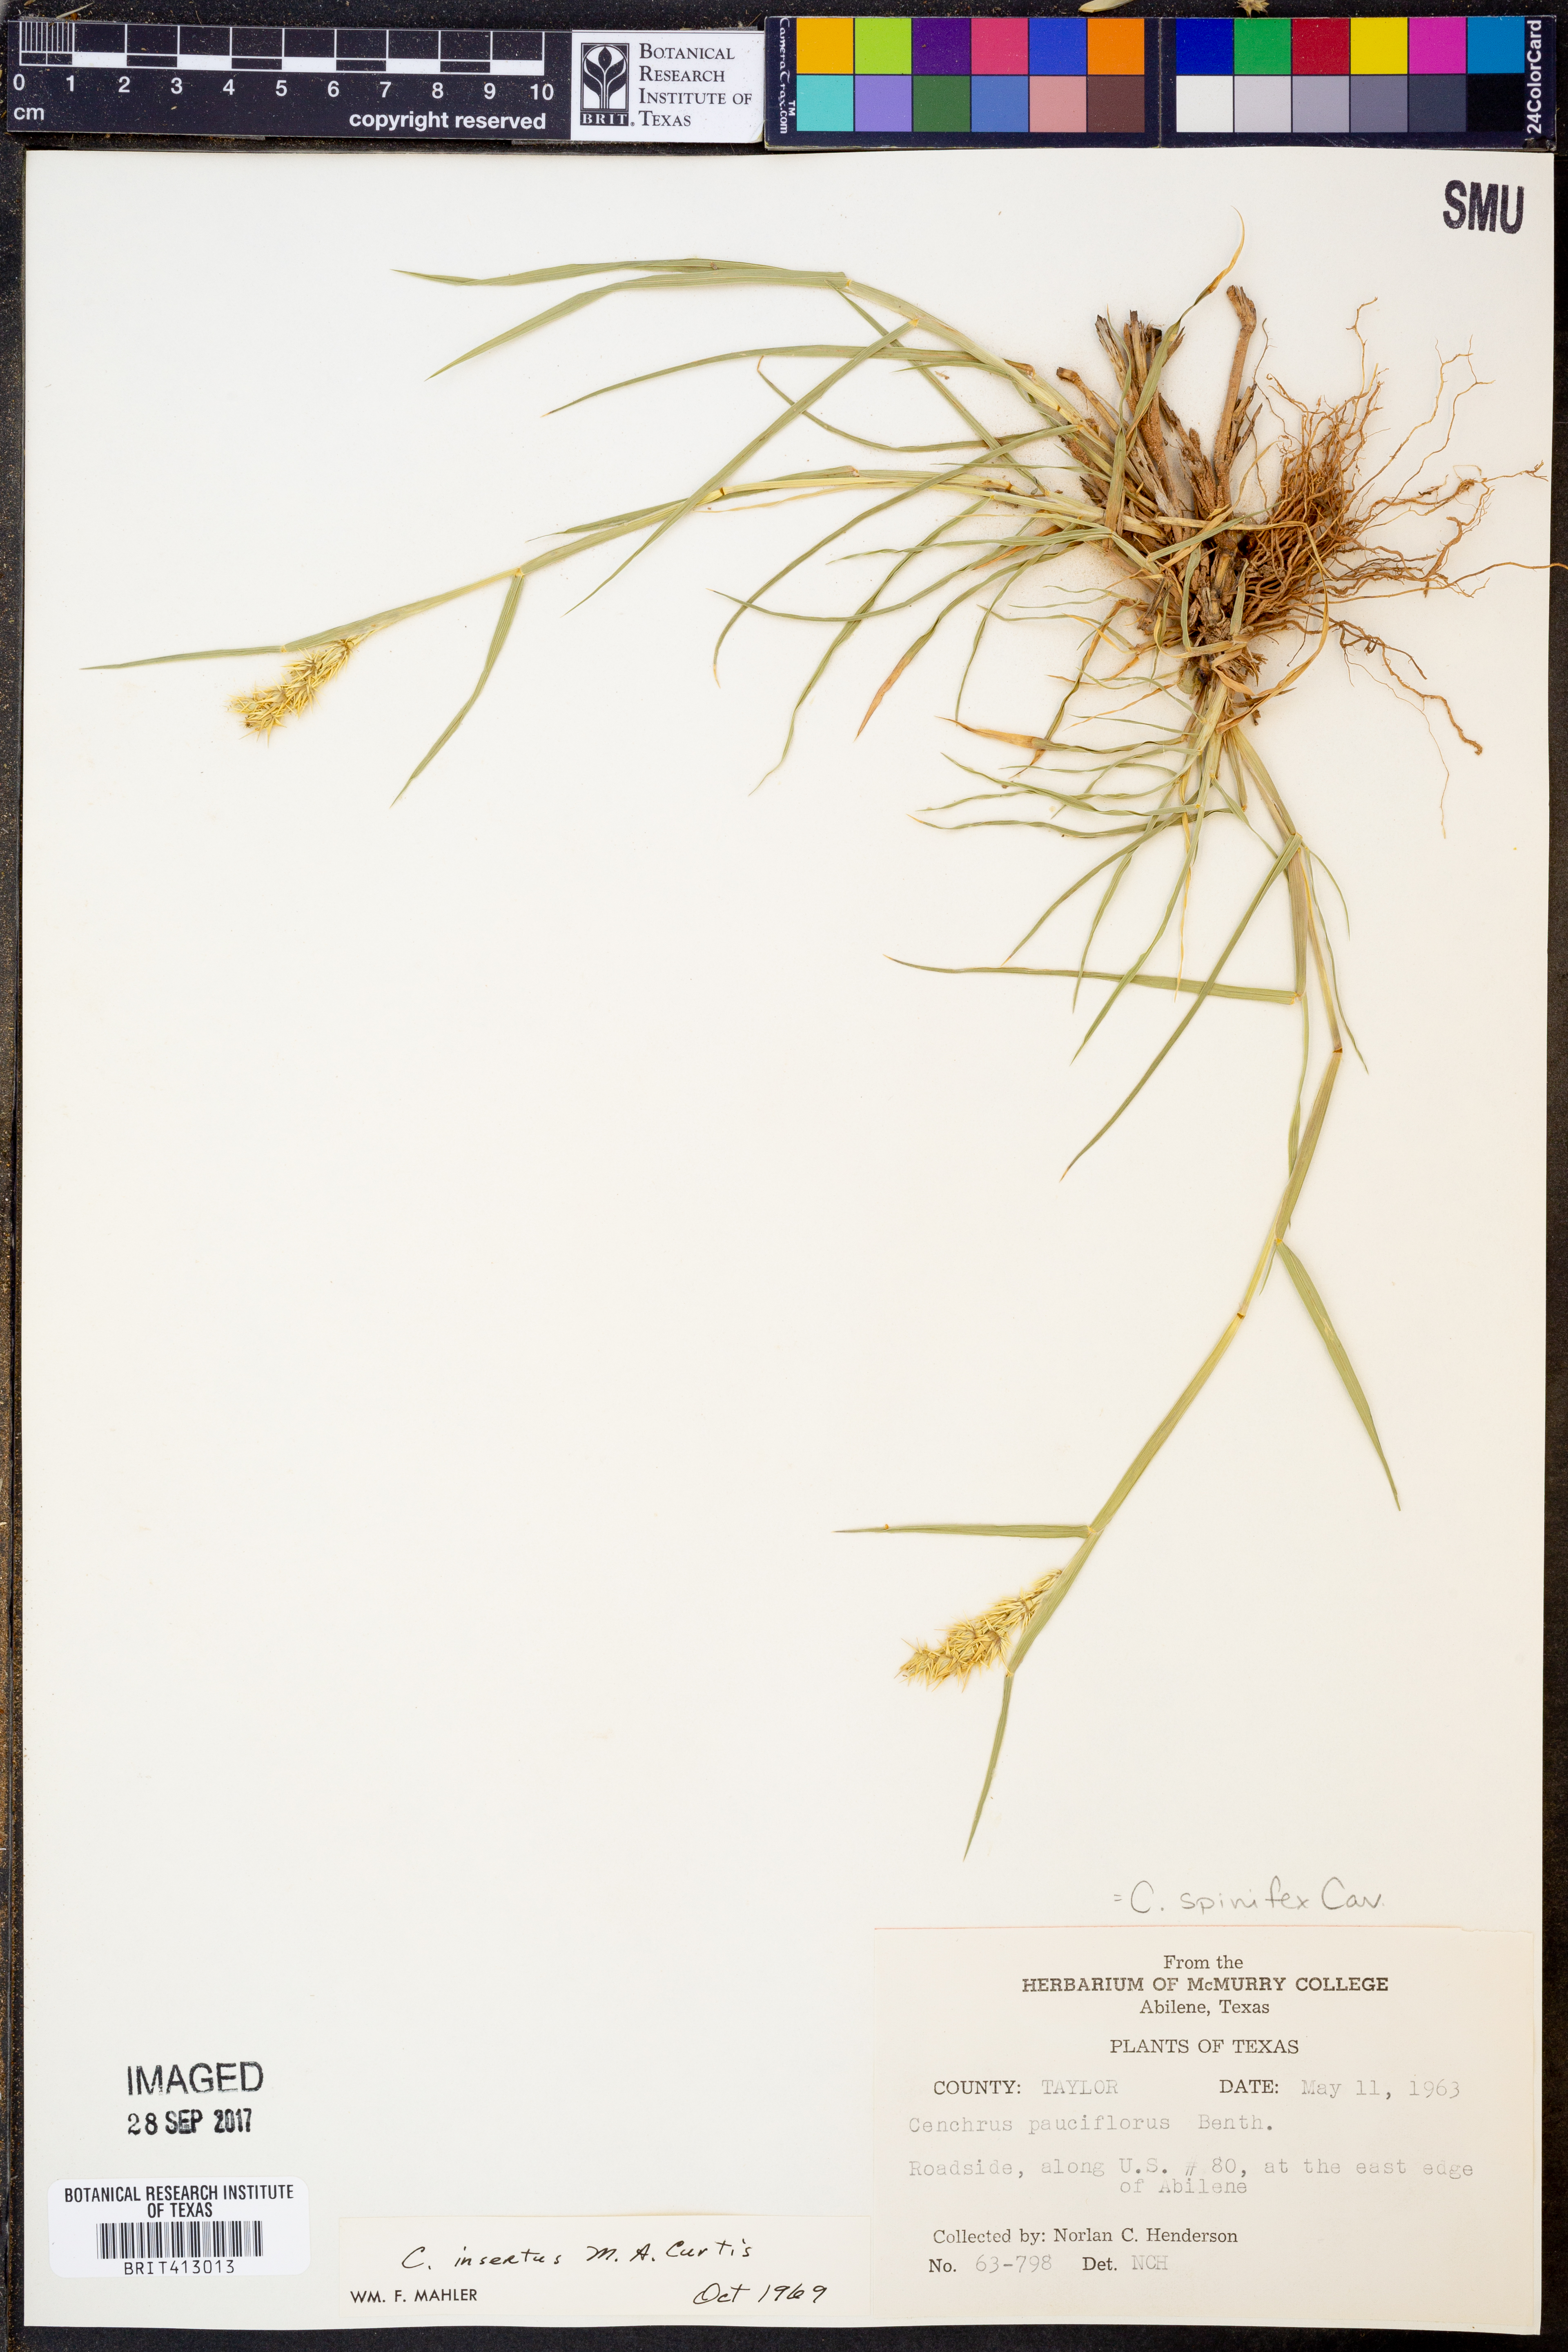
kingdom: Plantae
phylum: Tracheophyta
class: Liliopsida
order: Poales
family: Poaceae
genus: Cenchrus
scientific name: Cenchrus spinifex
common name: Coast sandbur
